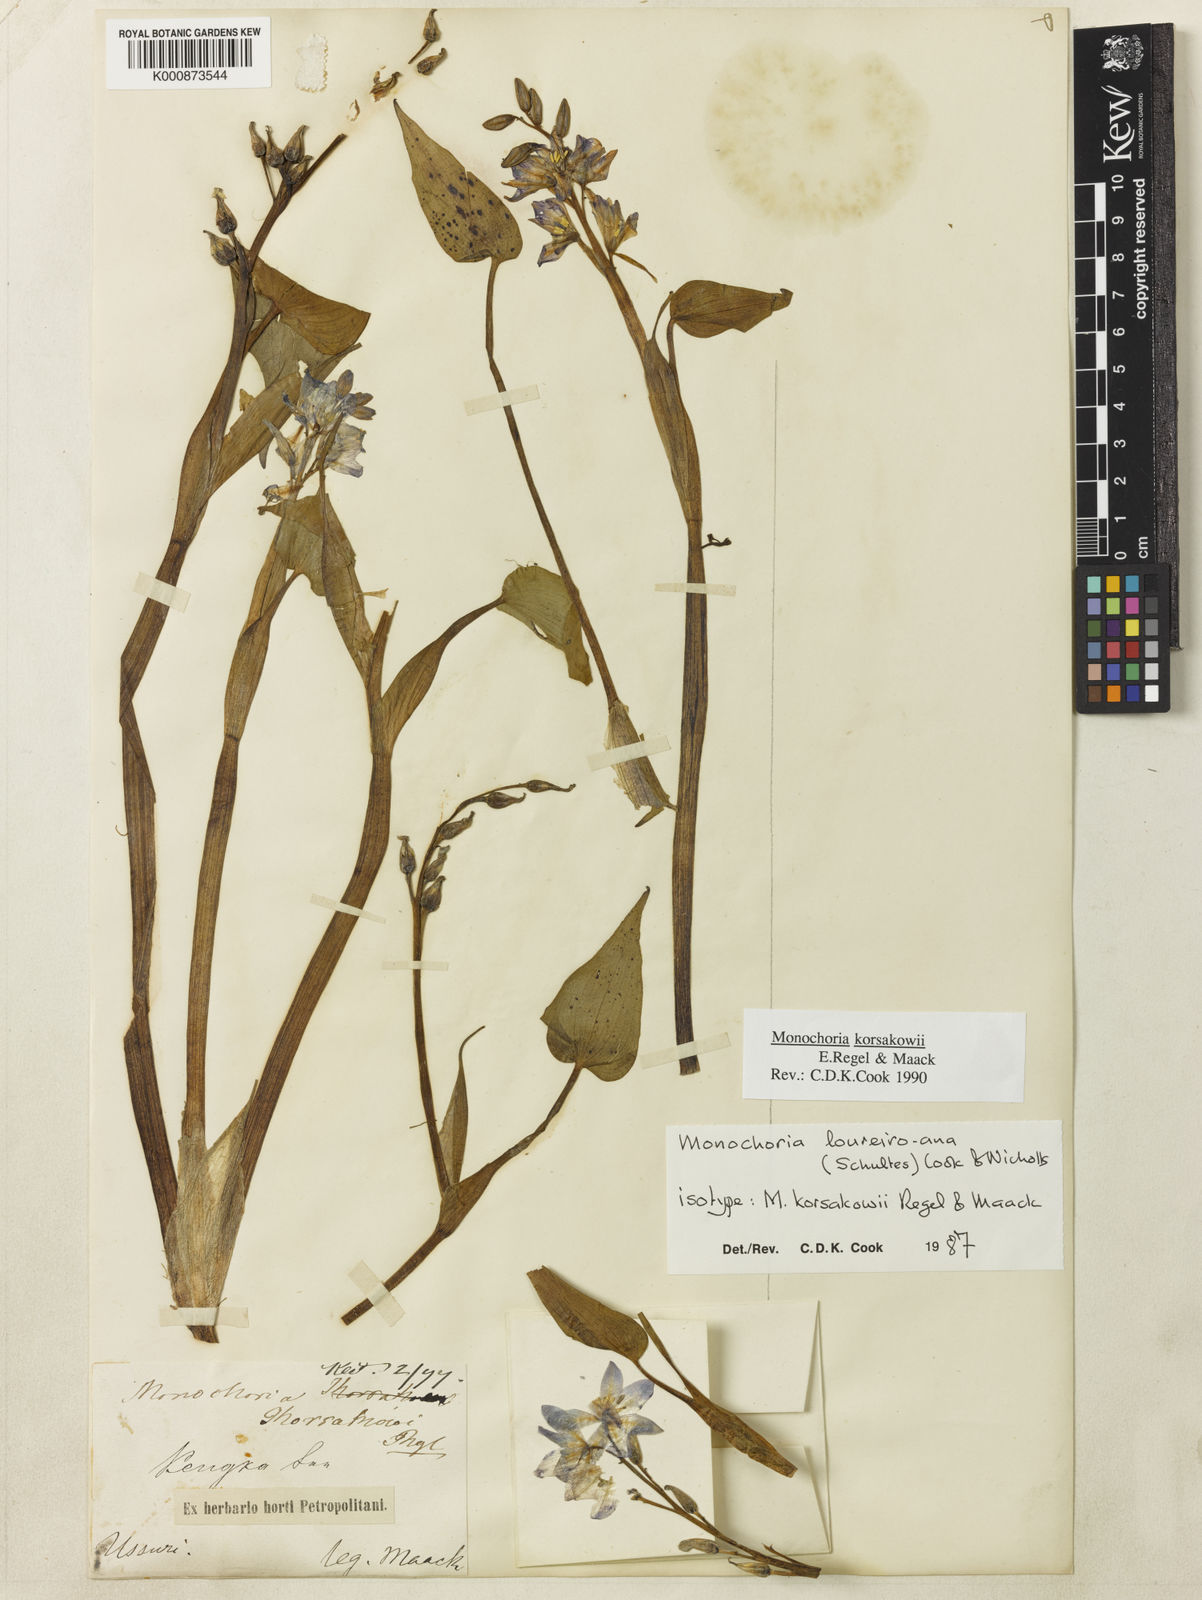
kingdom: Plantae
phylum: Tracheophyta
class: Liliopsida
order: Commelinales
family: Pontederiaceae
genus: Pontederia
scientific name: Pontederia korsakowii
